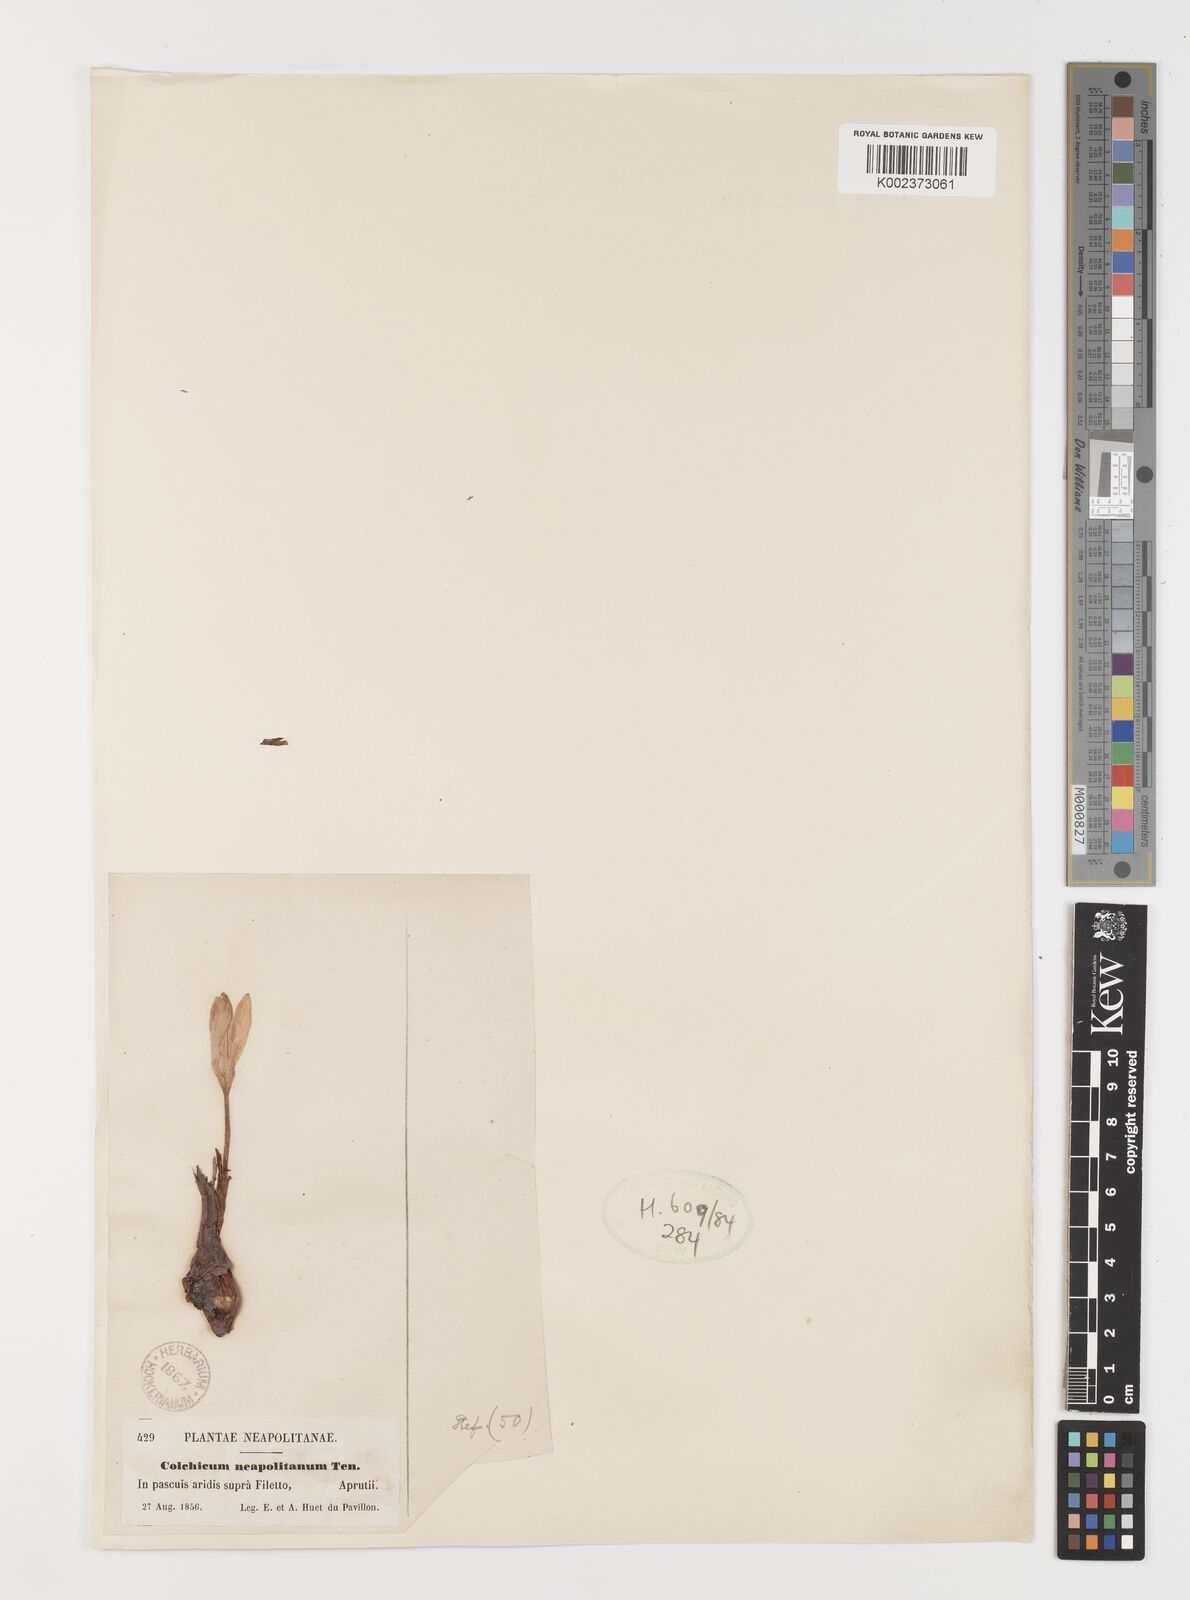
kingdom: Plantae
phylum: Tracheophyta
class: Liliopsida
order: Liliales
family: Colchicaceae
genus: Colchicum
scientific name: Colchicum neapolitanum
